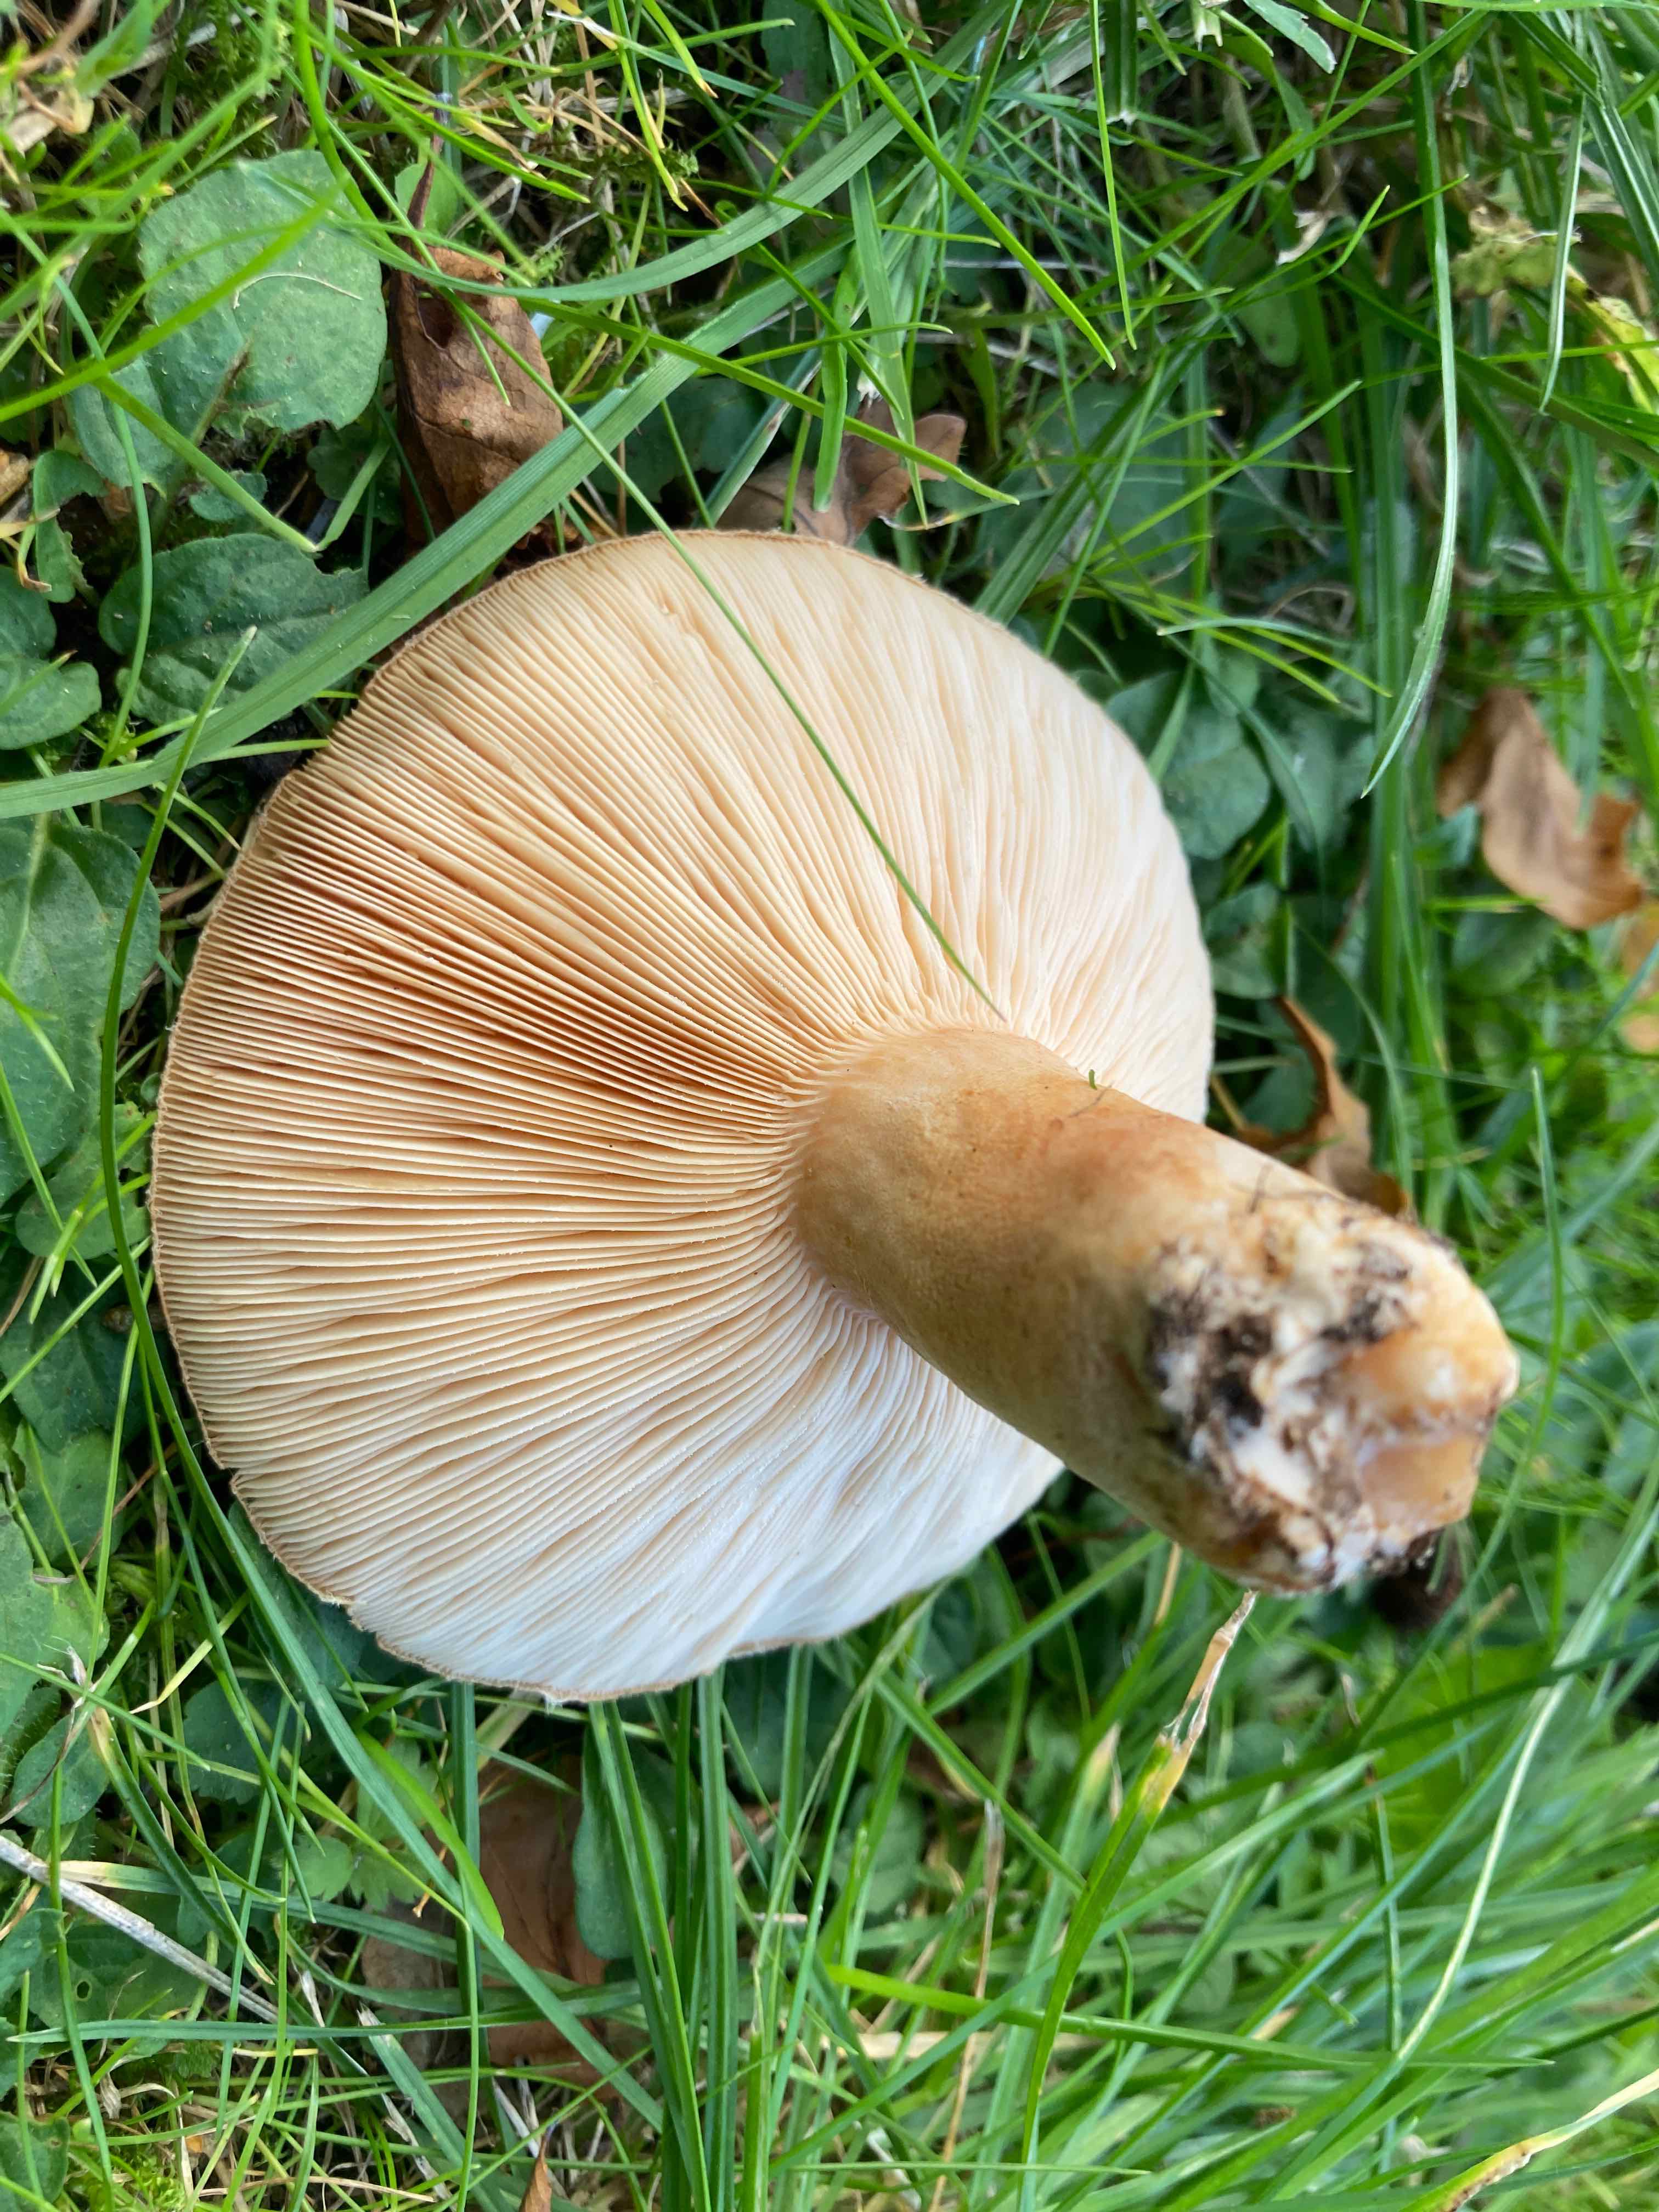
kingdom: Fungi
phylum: Basidiomycota
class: Agaricomycetes
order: Russulales
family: Russulaceae
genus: Lactarius
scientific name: Lactarius pubescens
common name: dunet mælkehat
